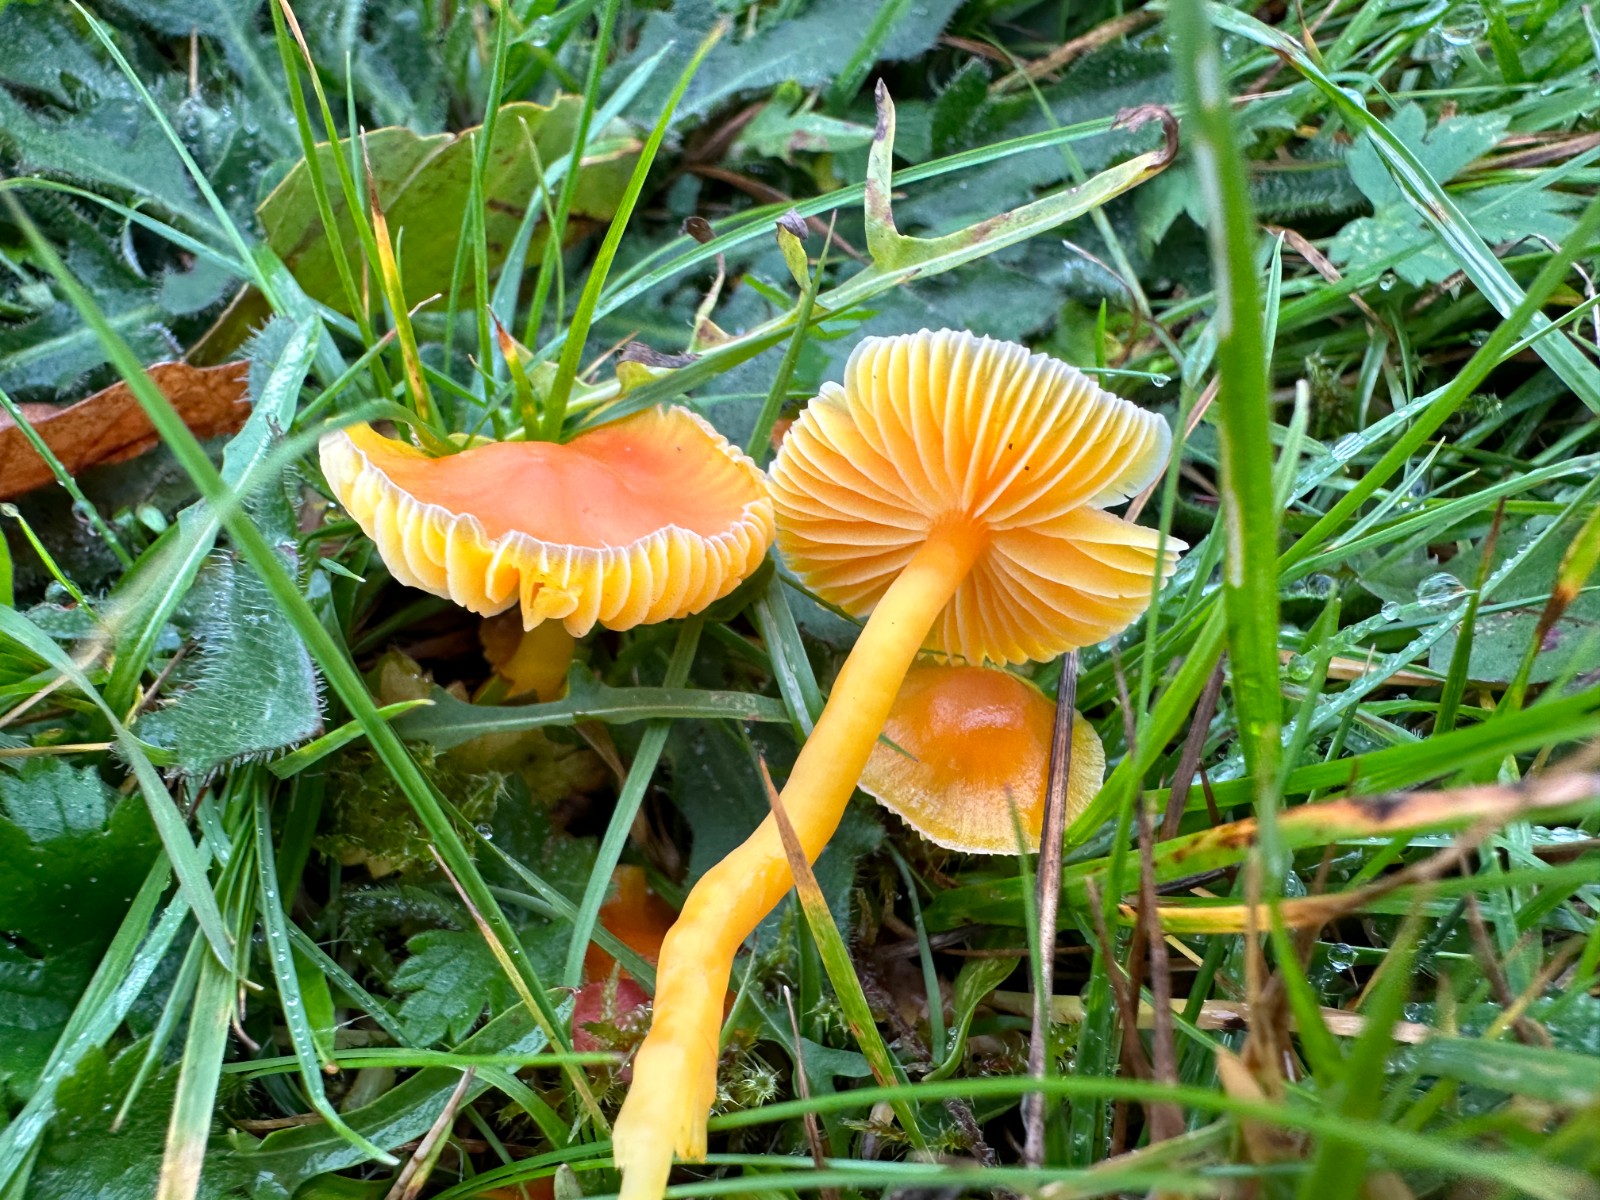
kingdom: Fungi
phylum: Basidiomycota
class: Agaricomycetes
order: Agaricales
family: Hygrophoraceae
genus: Hygrocybe
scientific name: Hygrocybe reidii
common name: honning-vokshat
